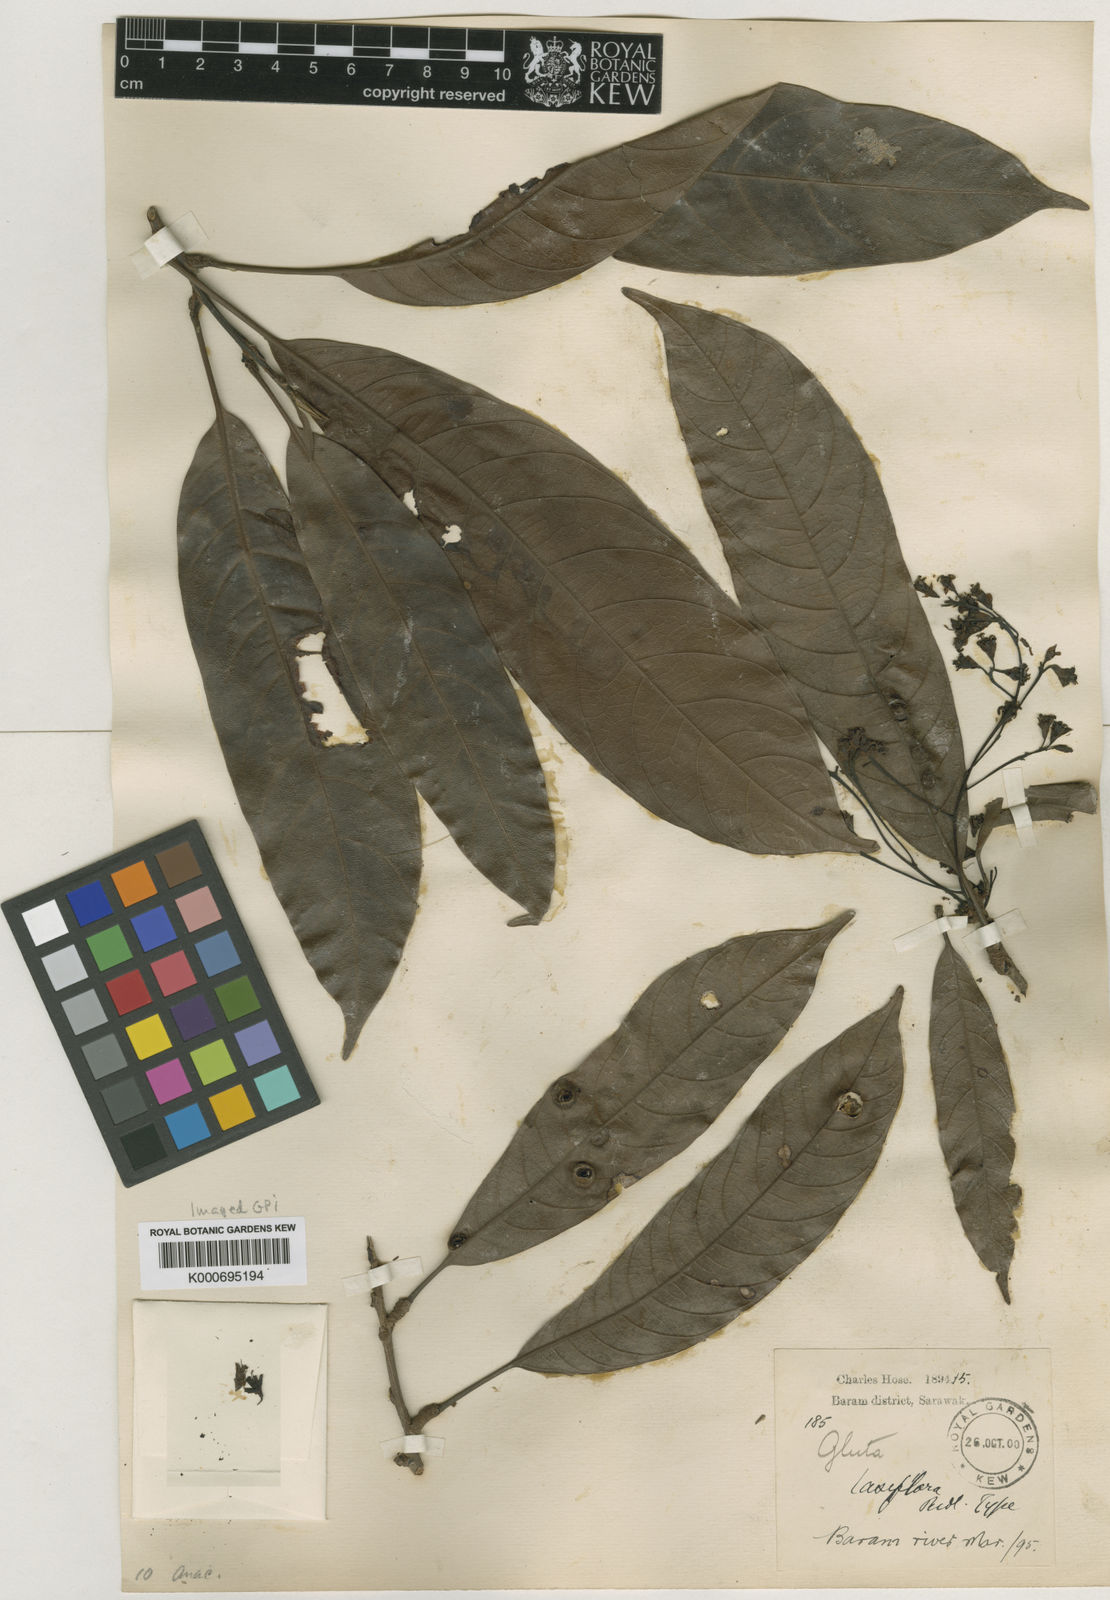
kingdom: Plantae
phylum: Tracheophyta
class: Magnoliopsida
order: Sapindales
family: Anacardiaceae
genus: Gluta
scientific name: Gluta laxiflora
